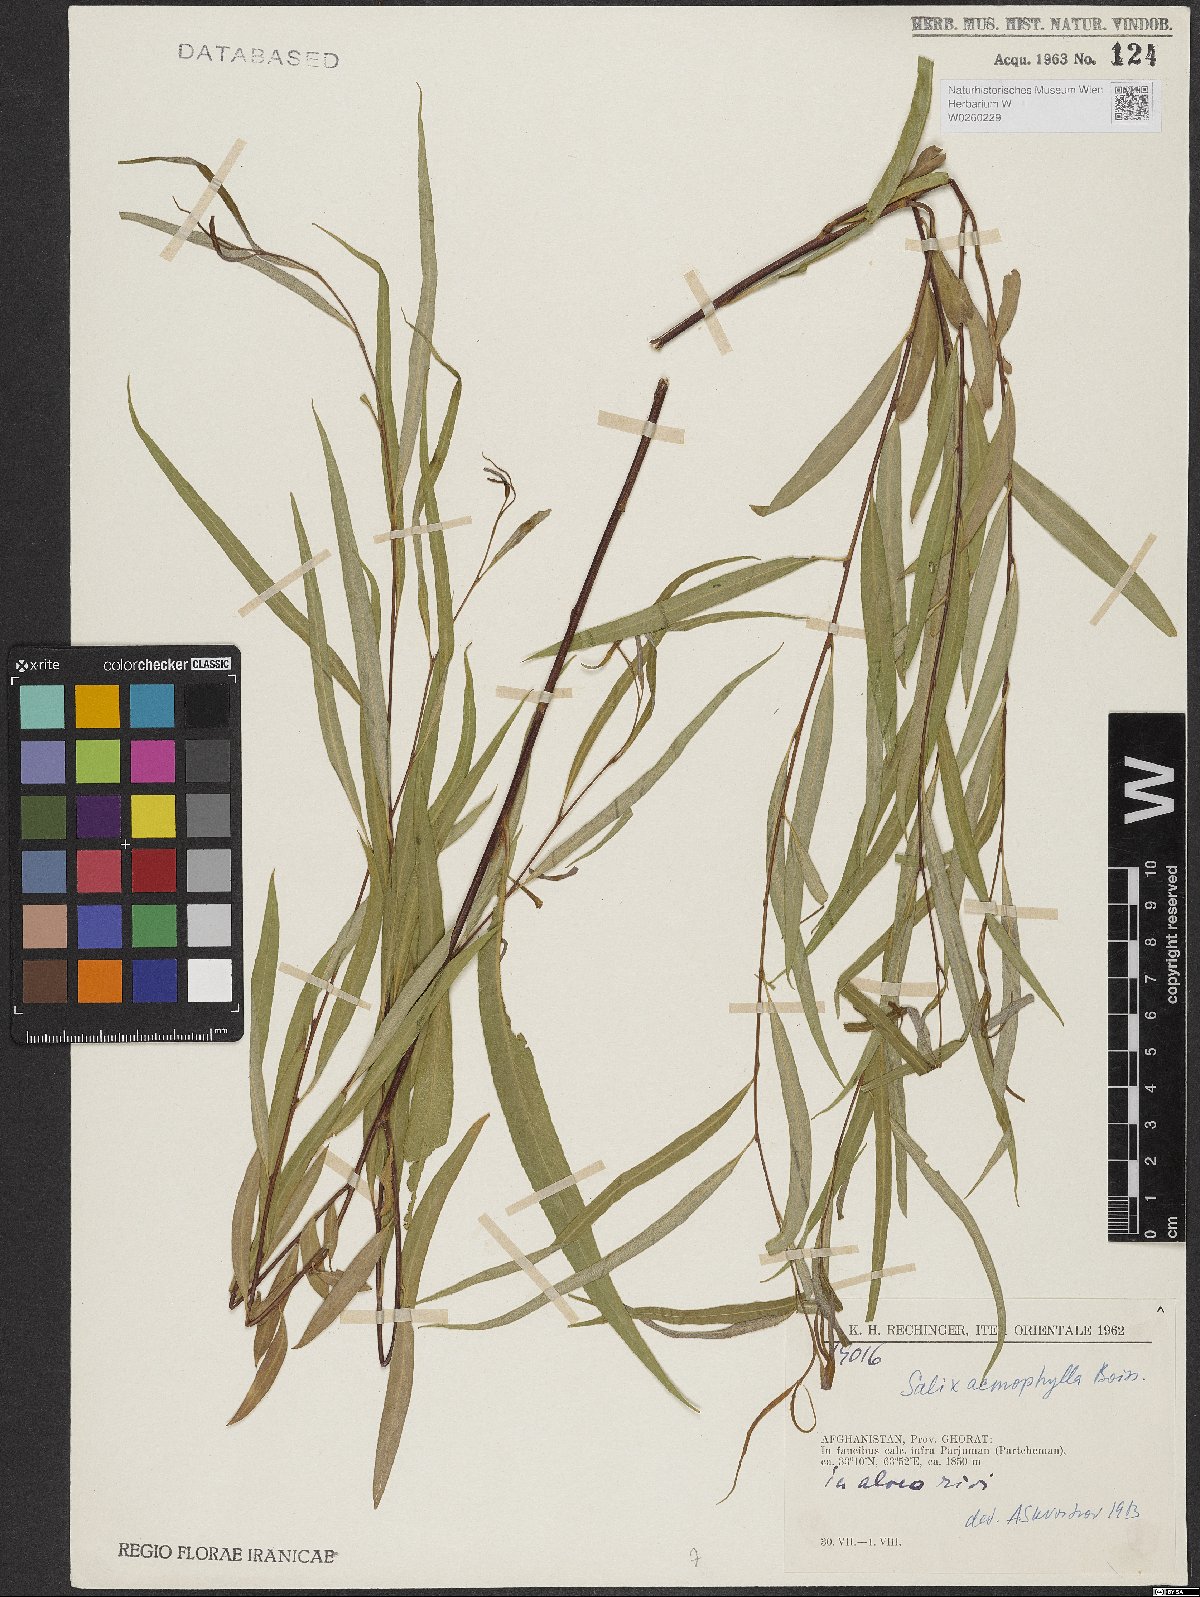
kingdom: Plantae
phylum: Tracheophyta
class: Magnoliopsida
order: Malpighiales
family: Salicaceae
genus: Salix
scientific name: Salix acmophylla
